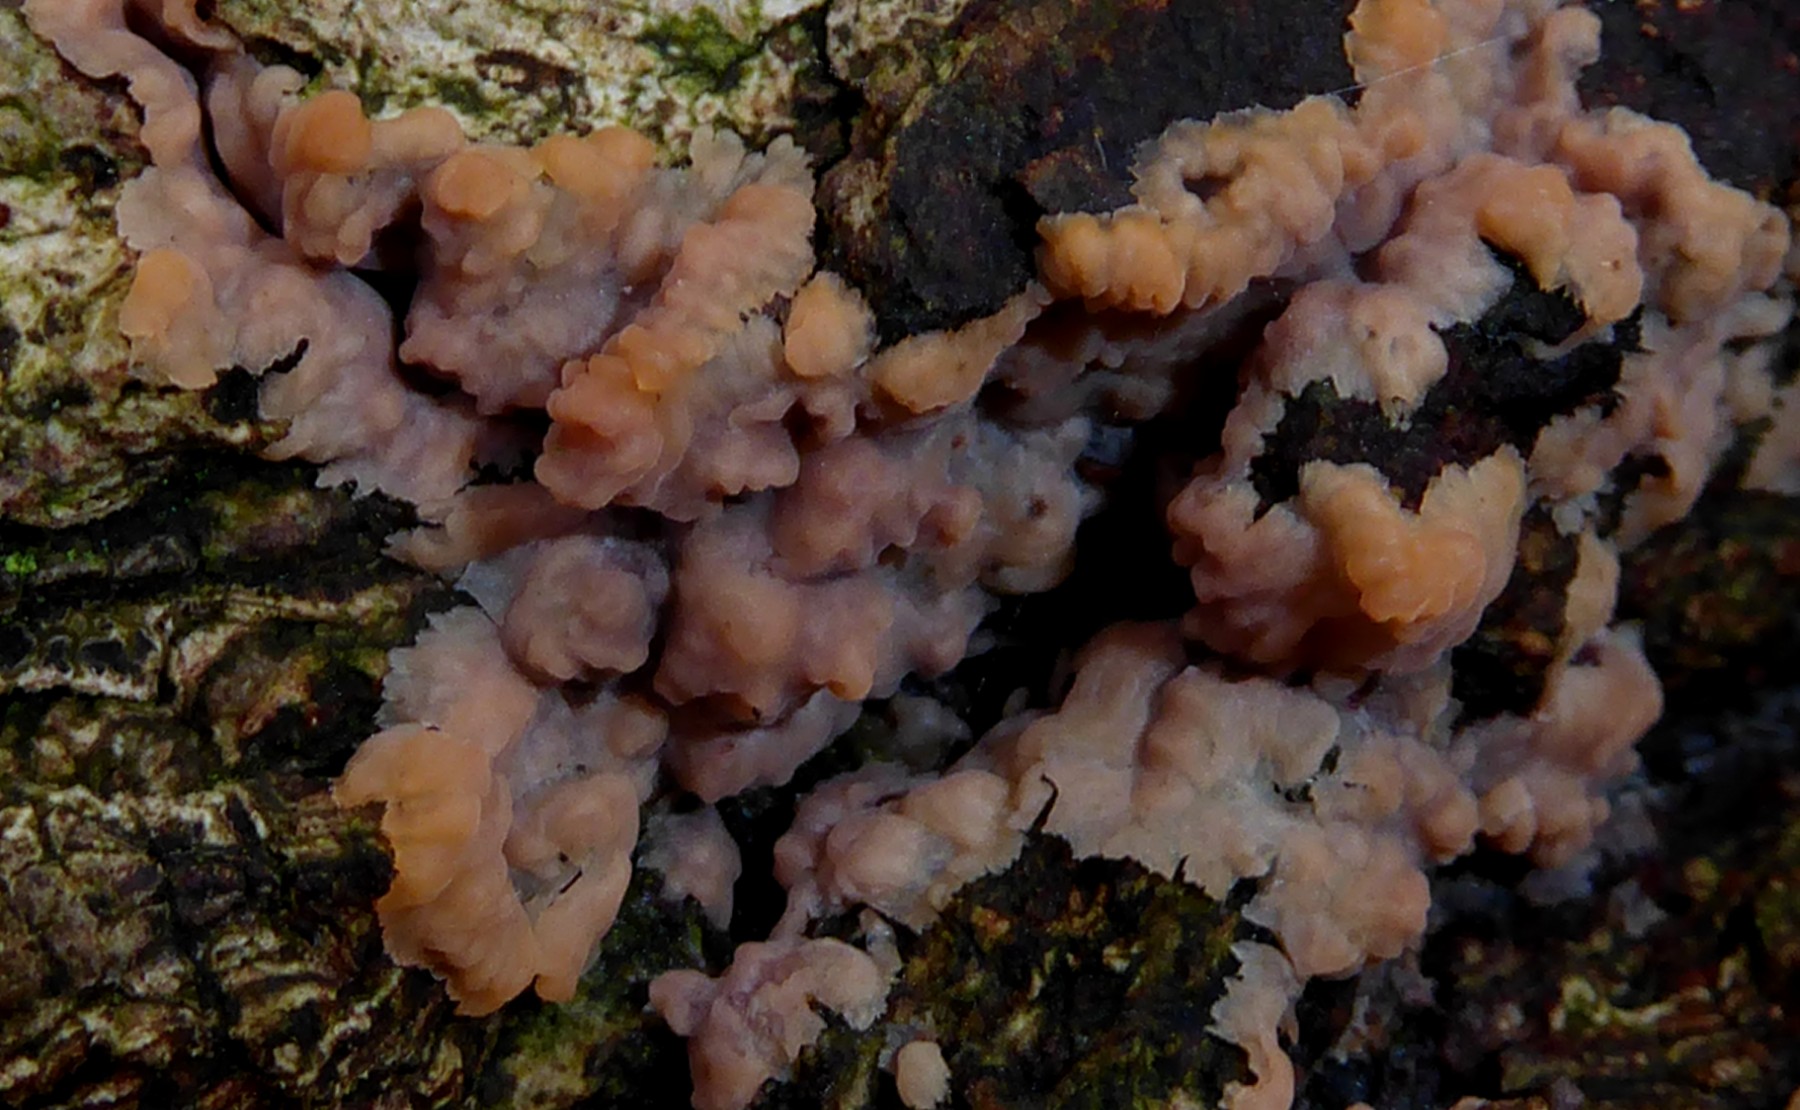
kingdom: Fungi
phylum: Basidiomycota
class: Agaricomycetes
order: Polyporales
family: Meruliaceae
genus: Phlebia
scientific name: Phlebia radiata
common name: stråle-åresvamp
